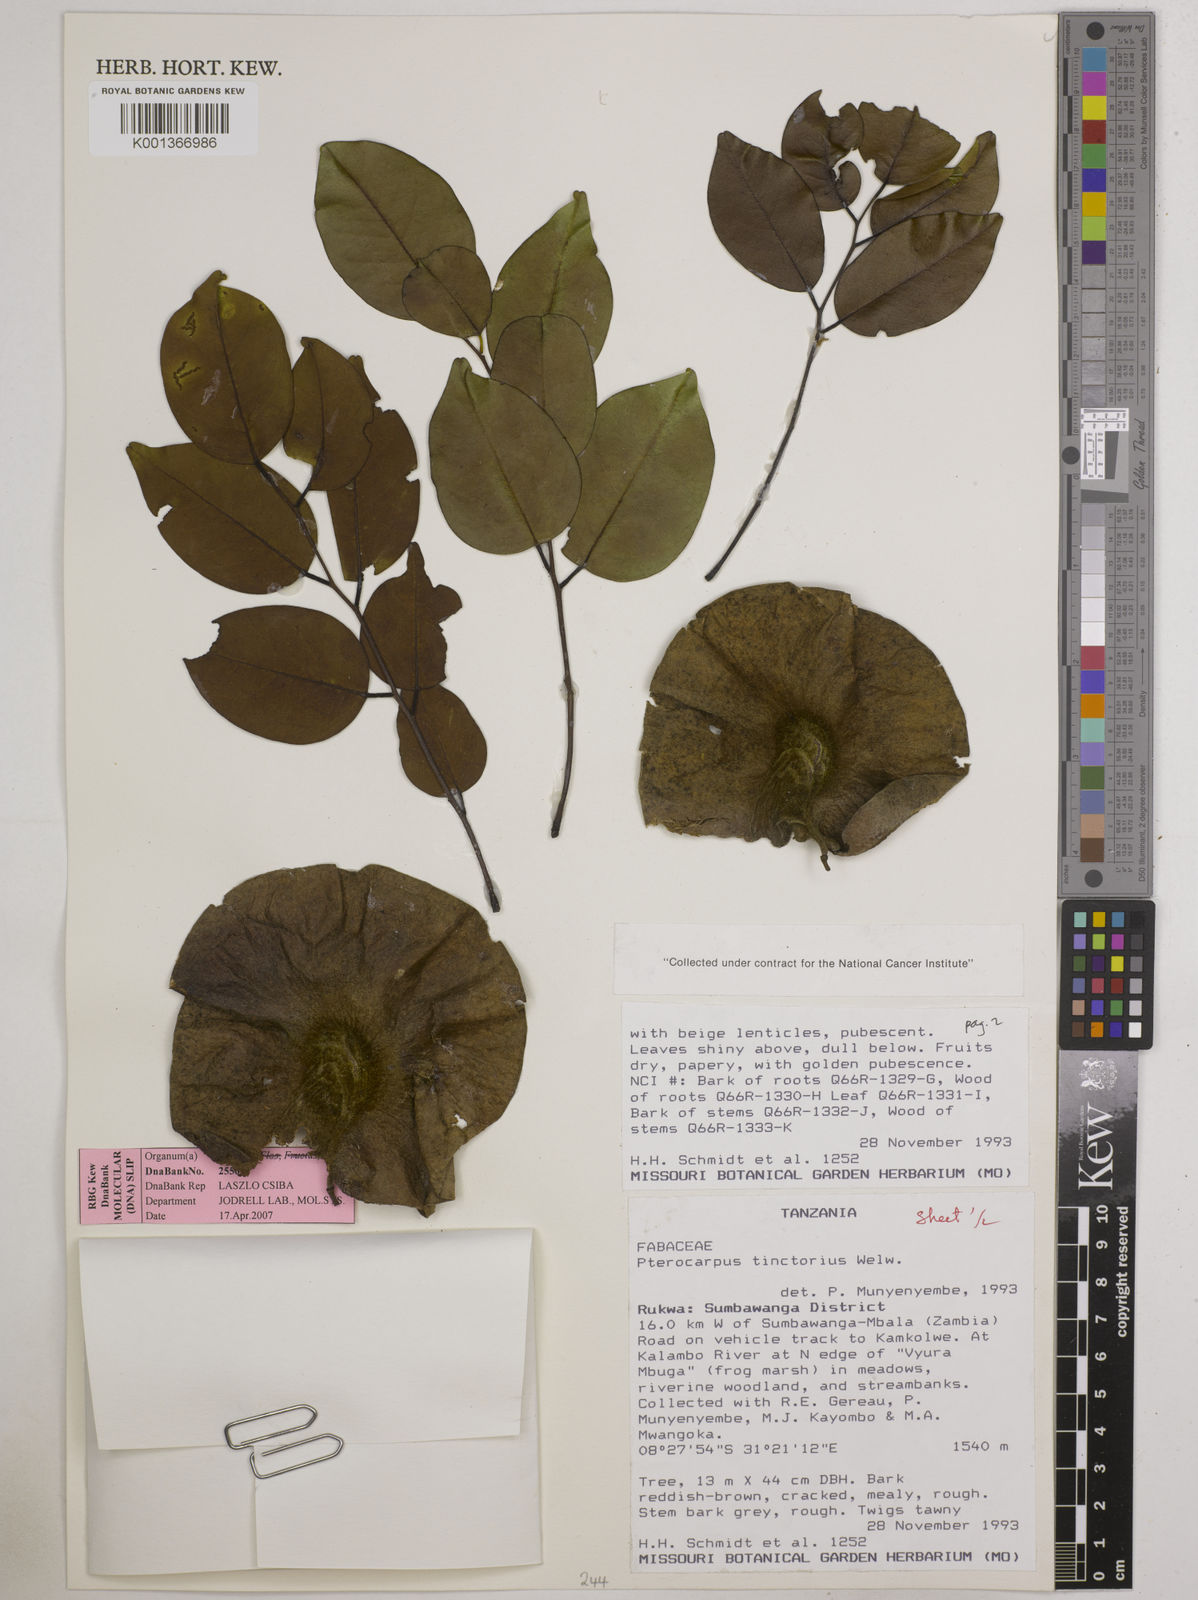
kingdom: Plantae
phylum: Tracheophyta
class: Magnoliopsida
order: Fabales
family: Fabaceae
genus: Pterocarpus
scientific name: Pterocarpus tinctorius
